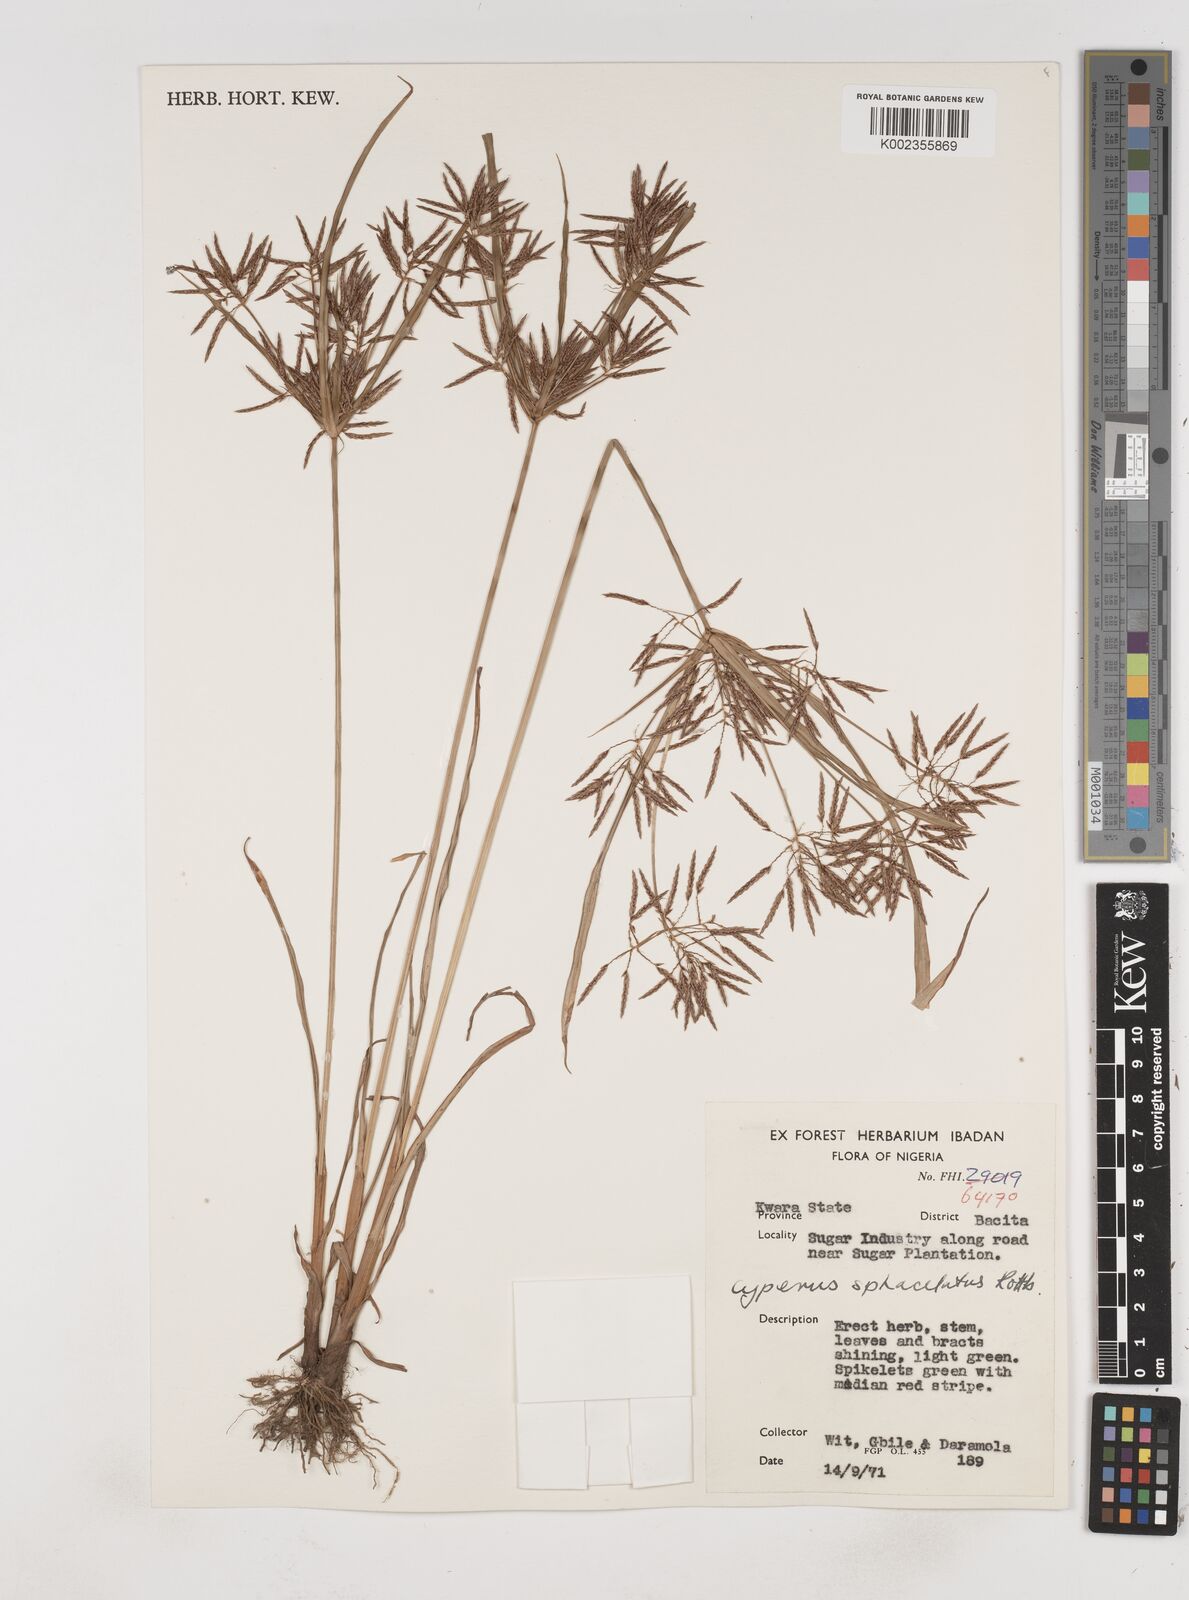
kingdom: Plantae
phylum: Tracheophyta
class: Liliopsida
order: Poales
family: Cyperaceae
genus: Cyperus
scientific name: Cyperus sphacelatus
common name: Roadside flatsedge
